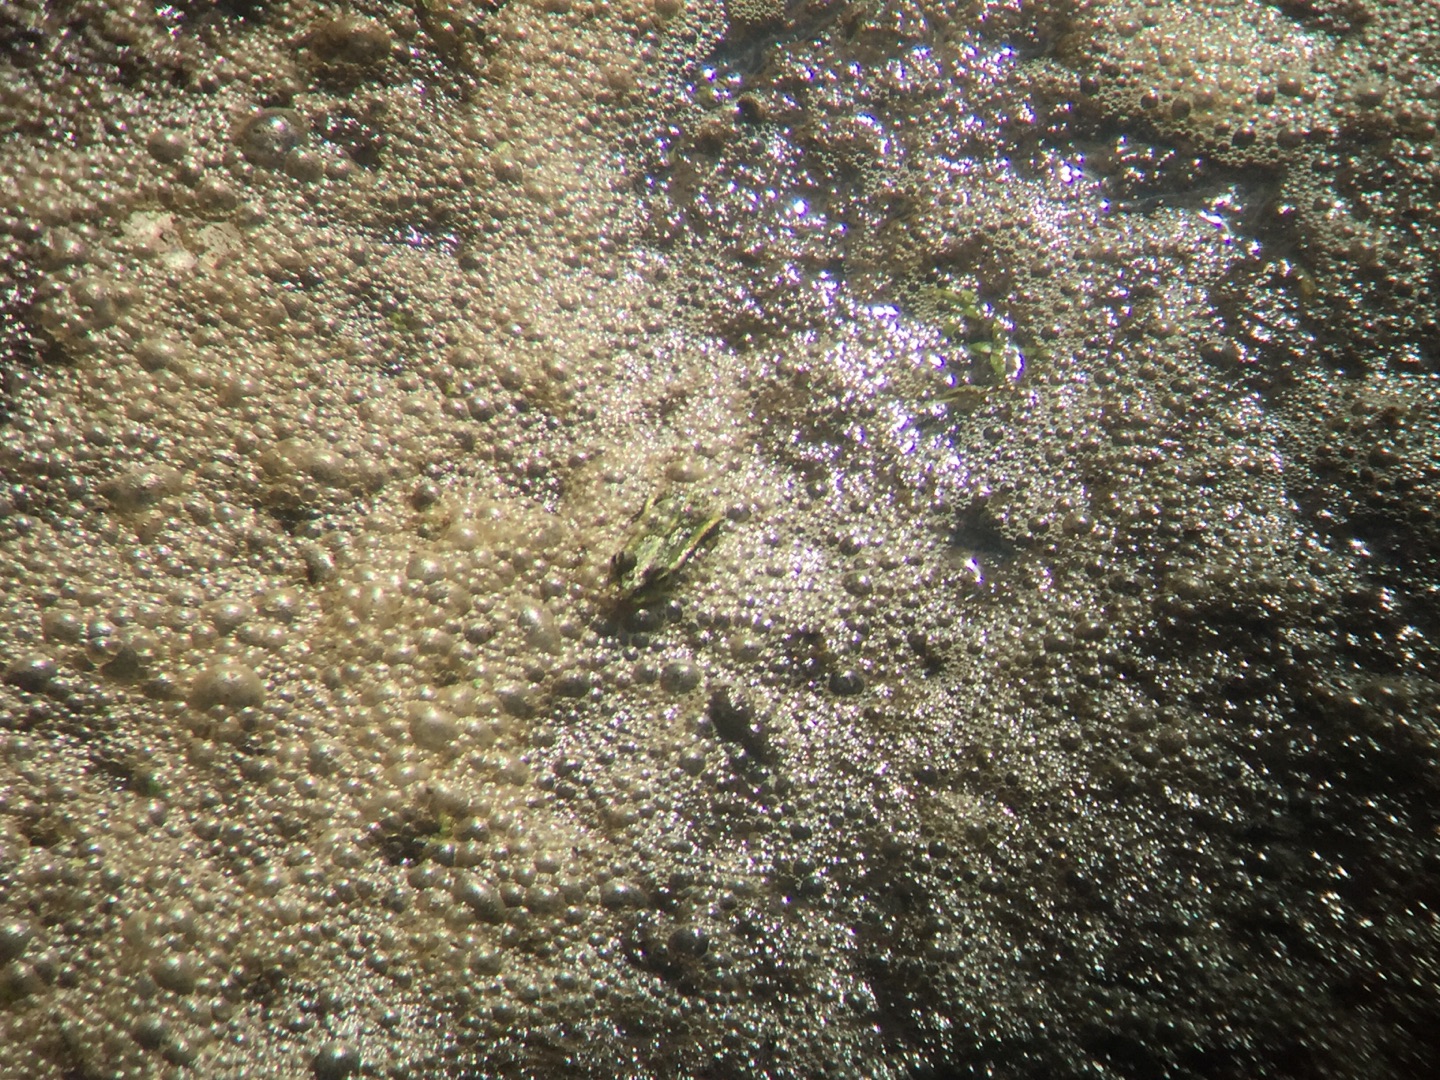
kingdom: Animalia
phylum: Chordata
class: Amphibia
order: Anura
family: Ranidae
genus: Pelophylax
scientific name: Pelophylax lessonae
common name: Grøn frø
